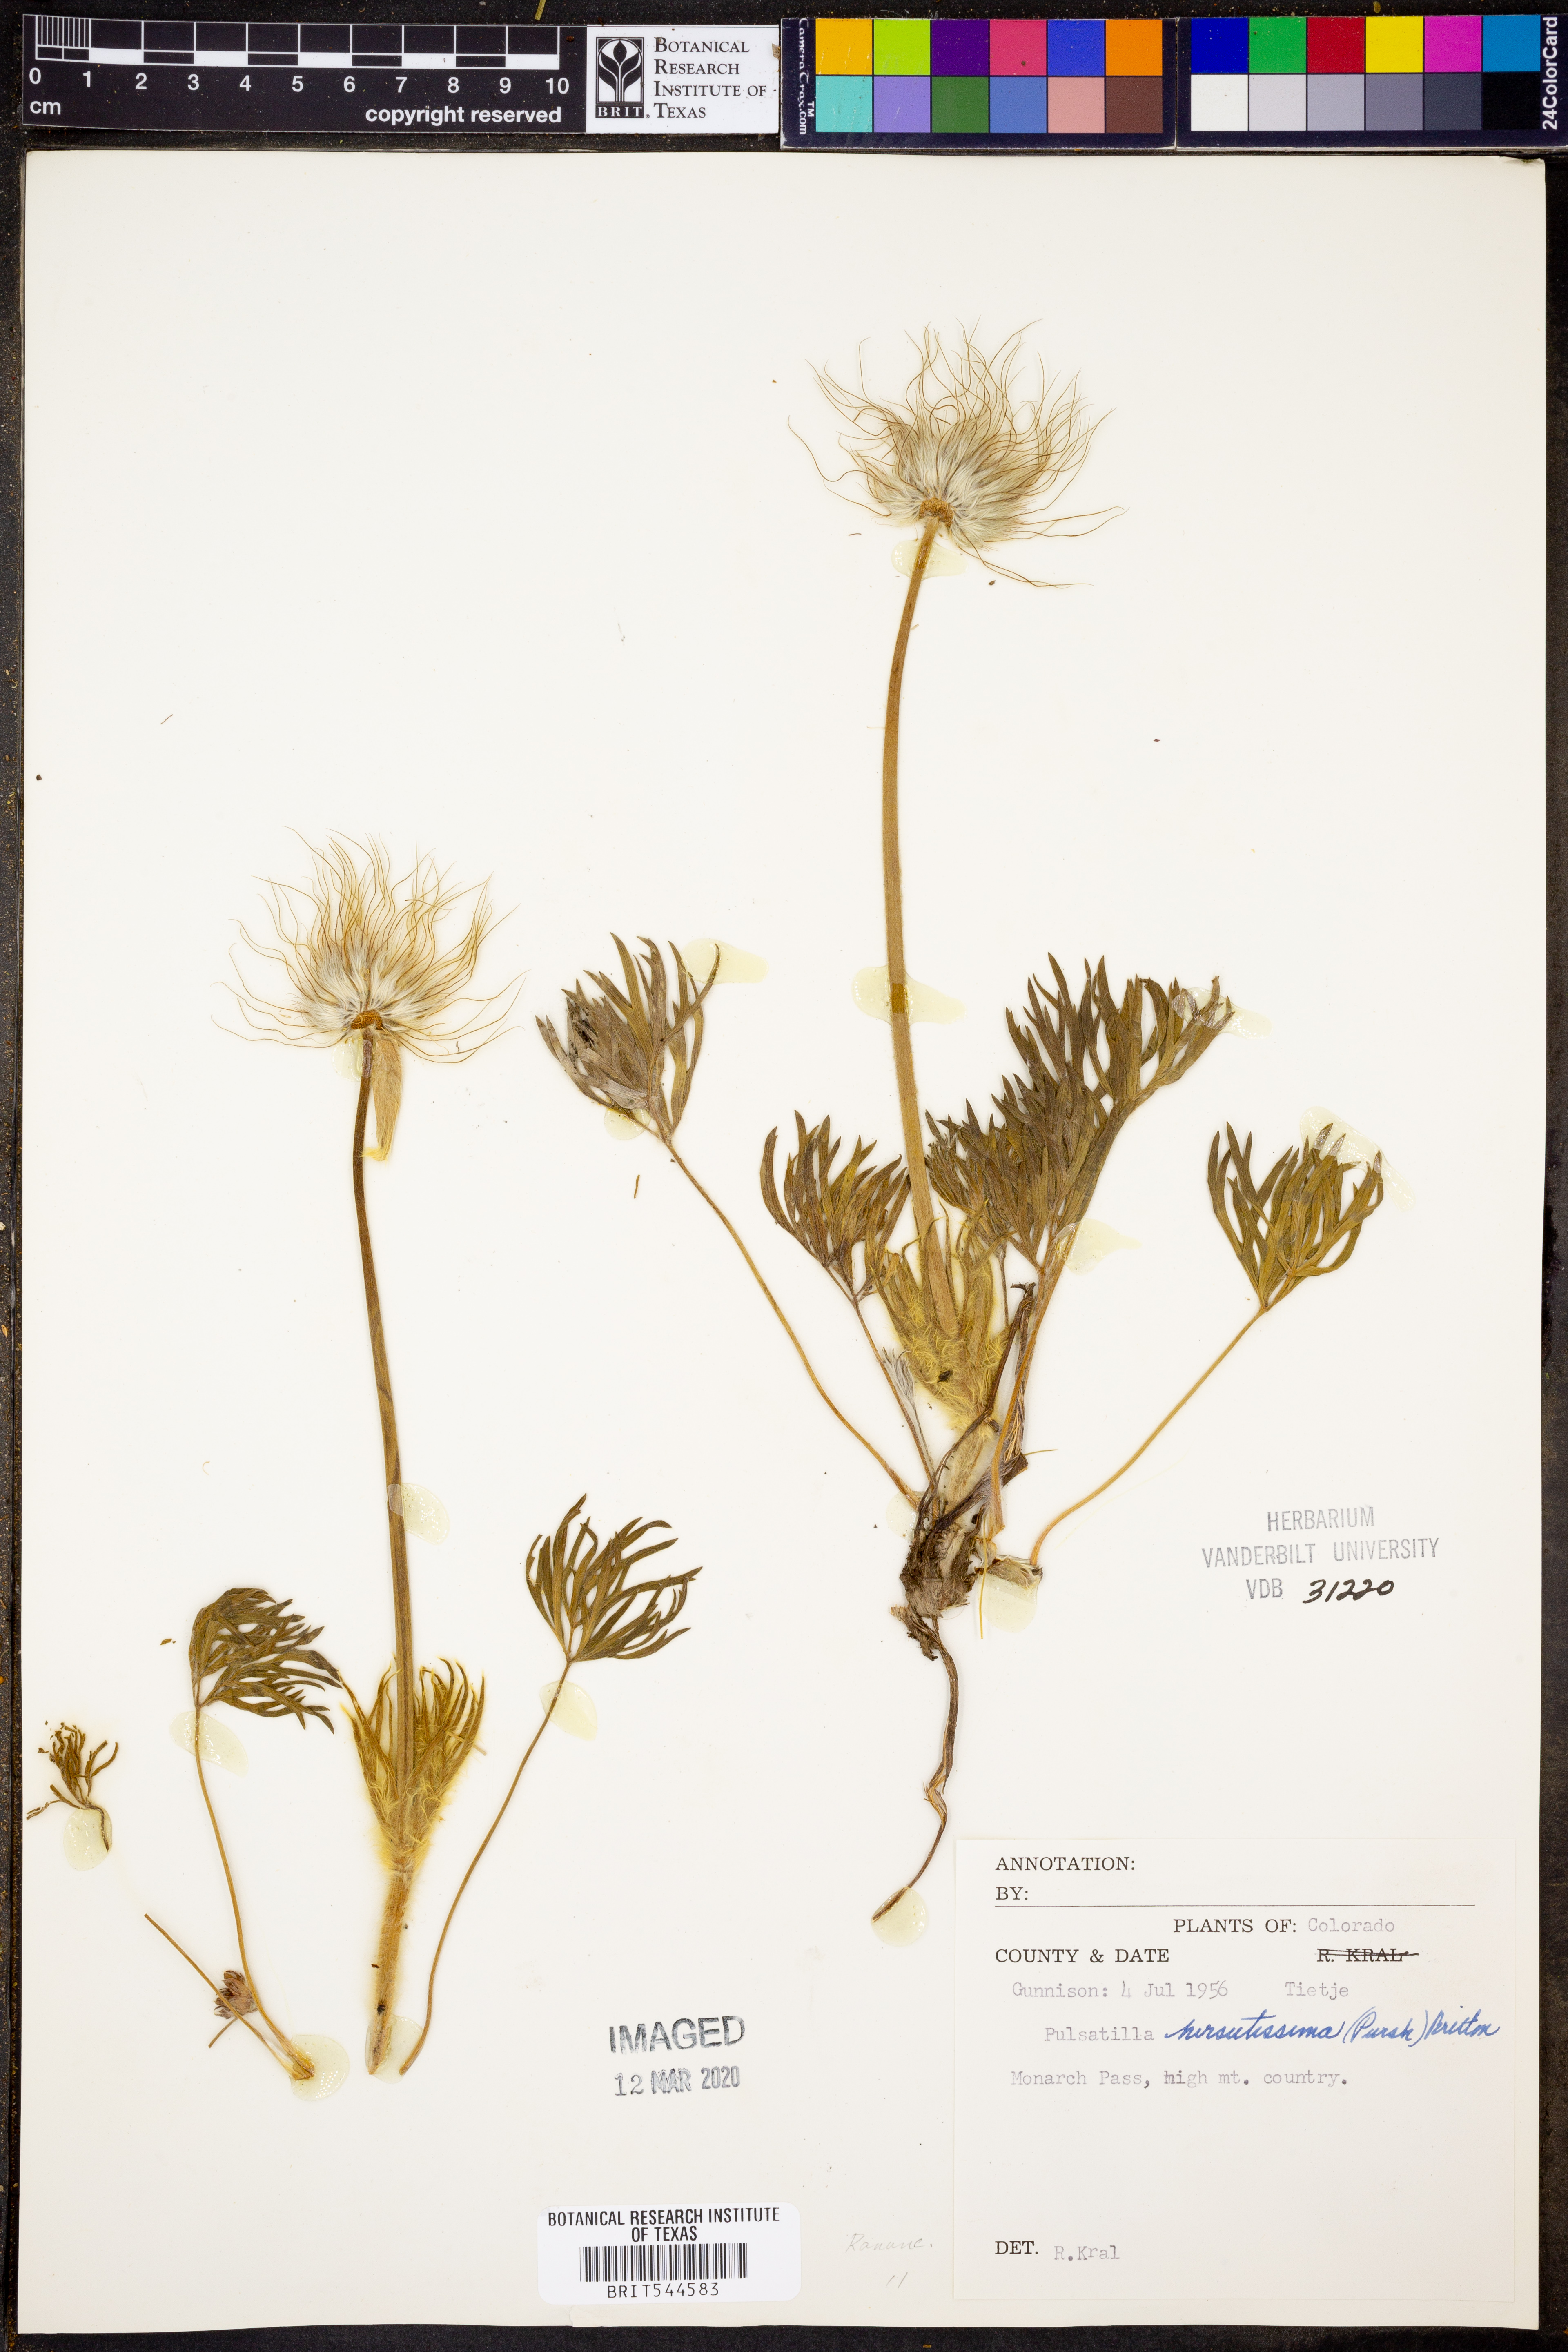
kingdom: Plantae
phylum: Tracheophyta
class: Magnoliopsida
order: Ranunculales
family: Ranunculaceae
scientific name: Ranunculaceae
